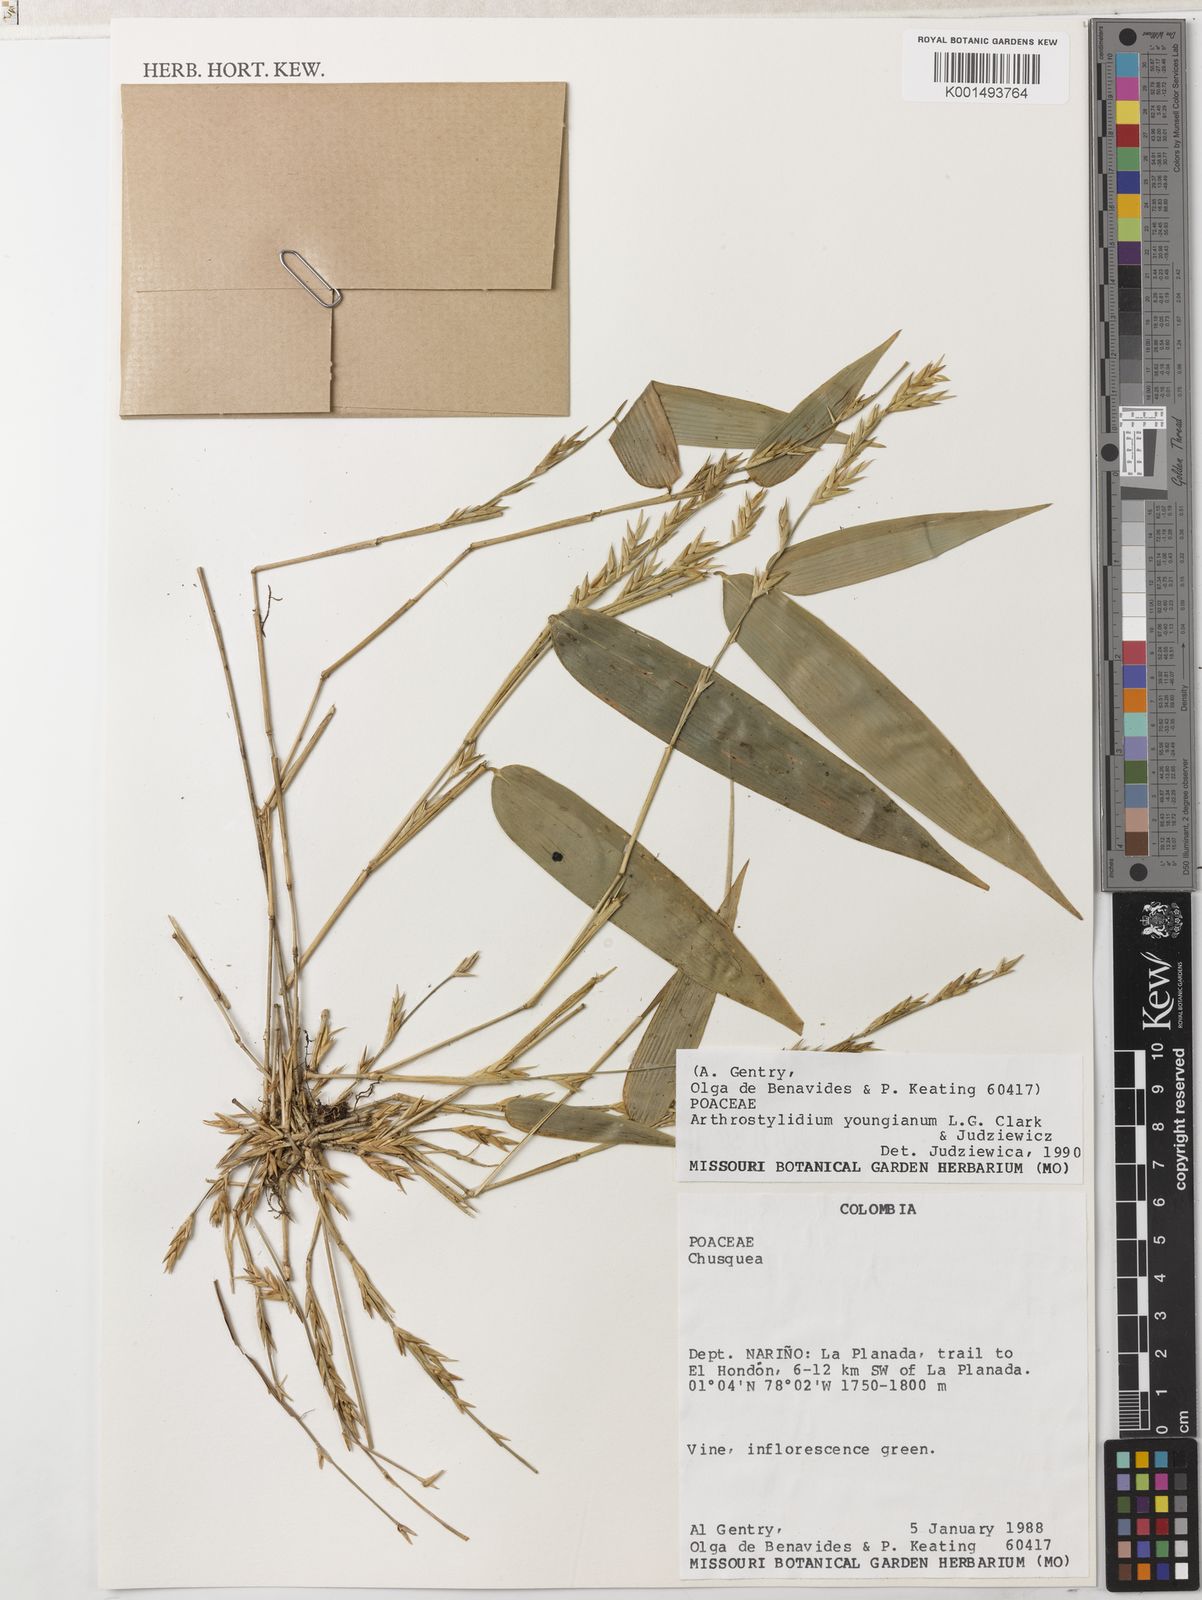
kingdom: Plantae
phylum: Tracheophyta
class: Liliopsida
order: Poales
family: Poaceae
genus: Arthrostylidium
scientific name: Arthrostylidium youngianum
